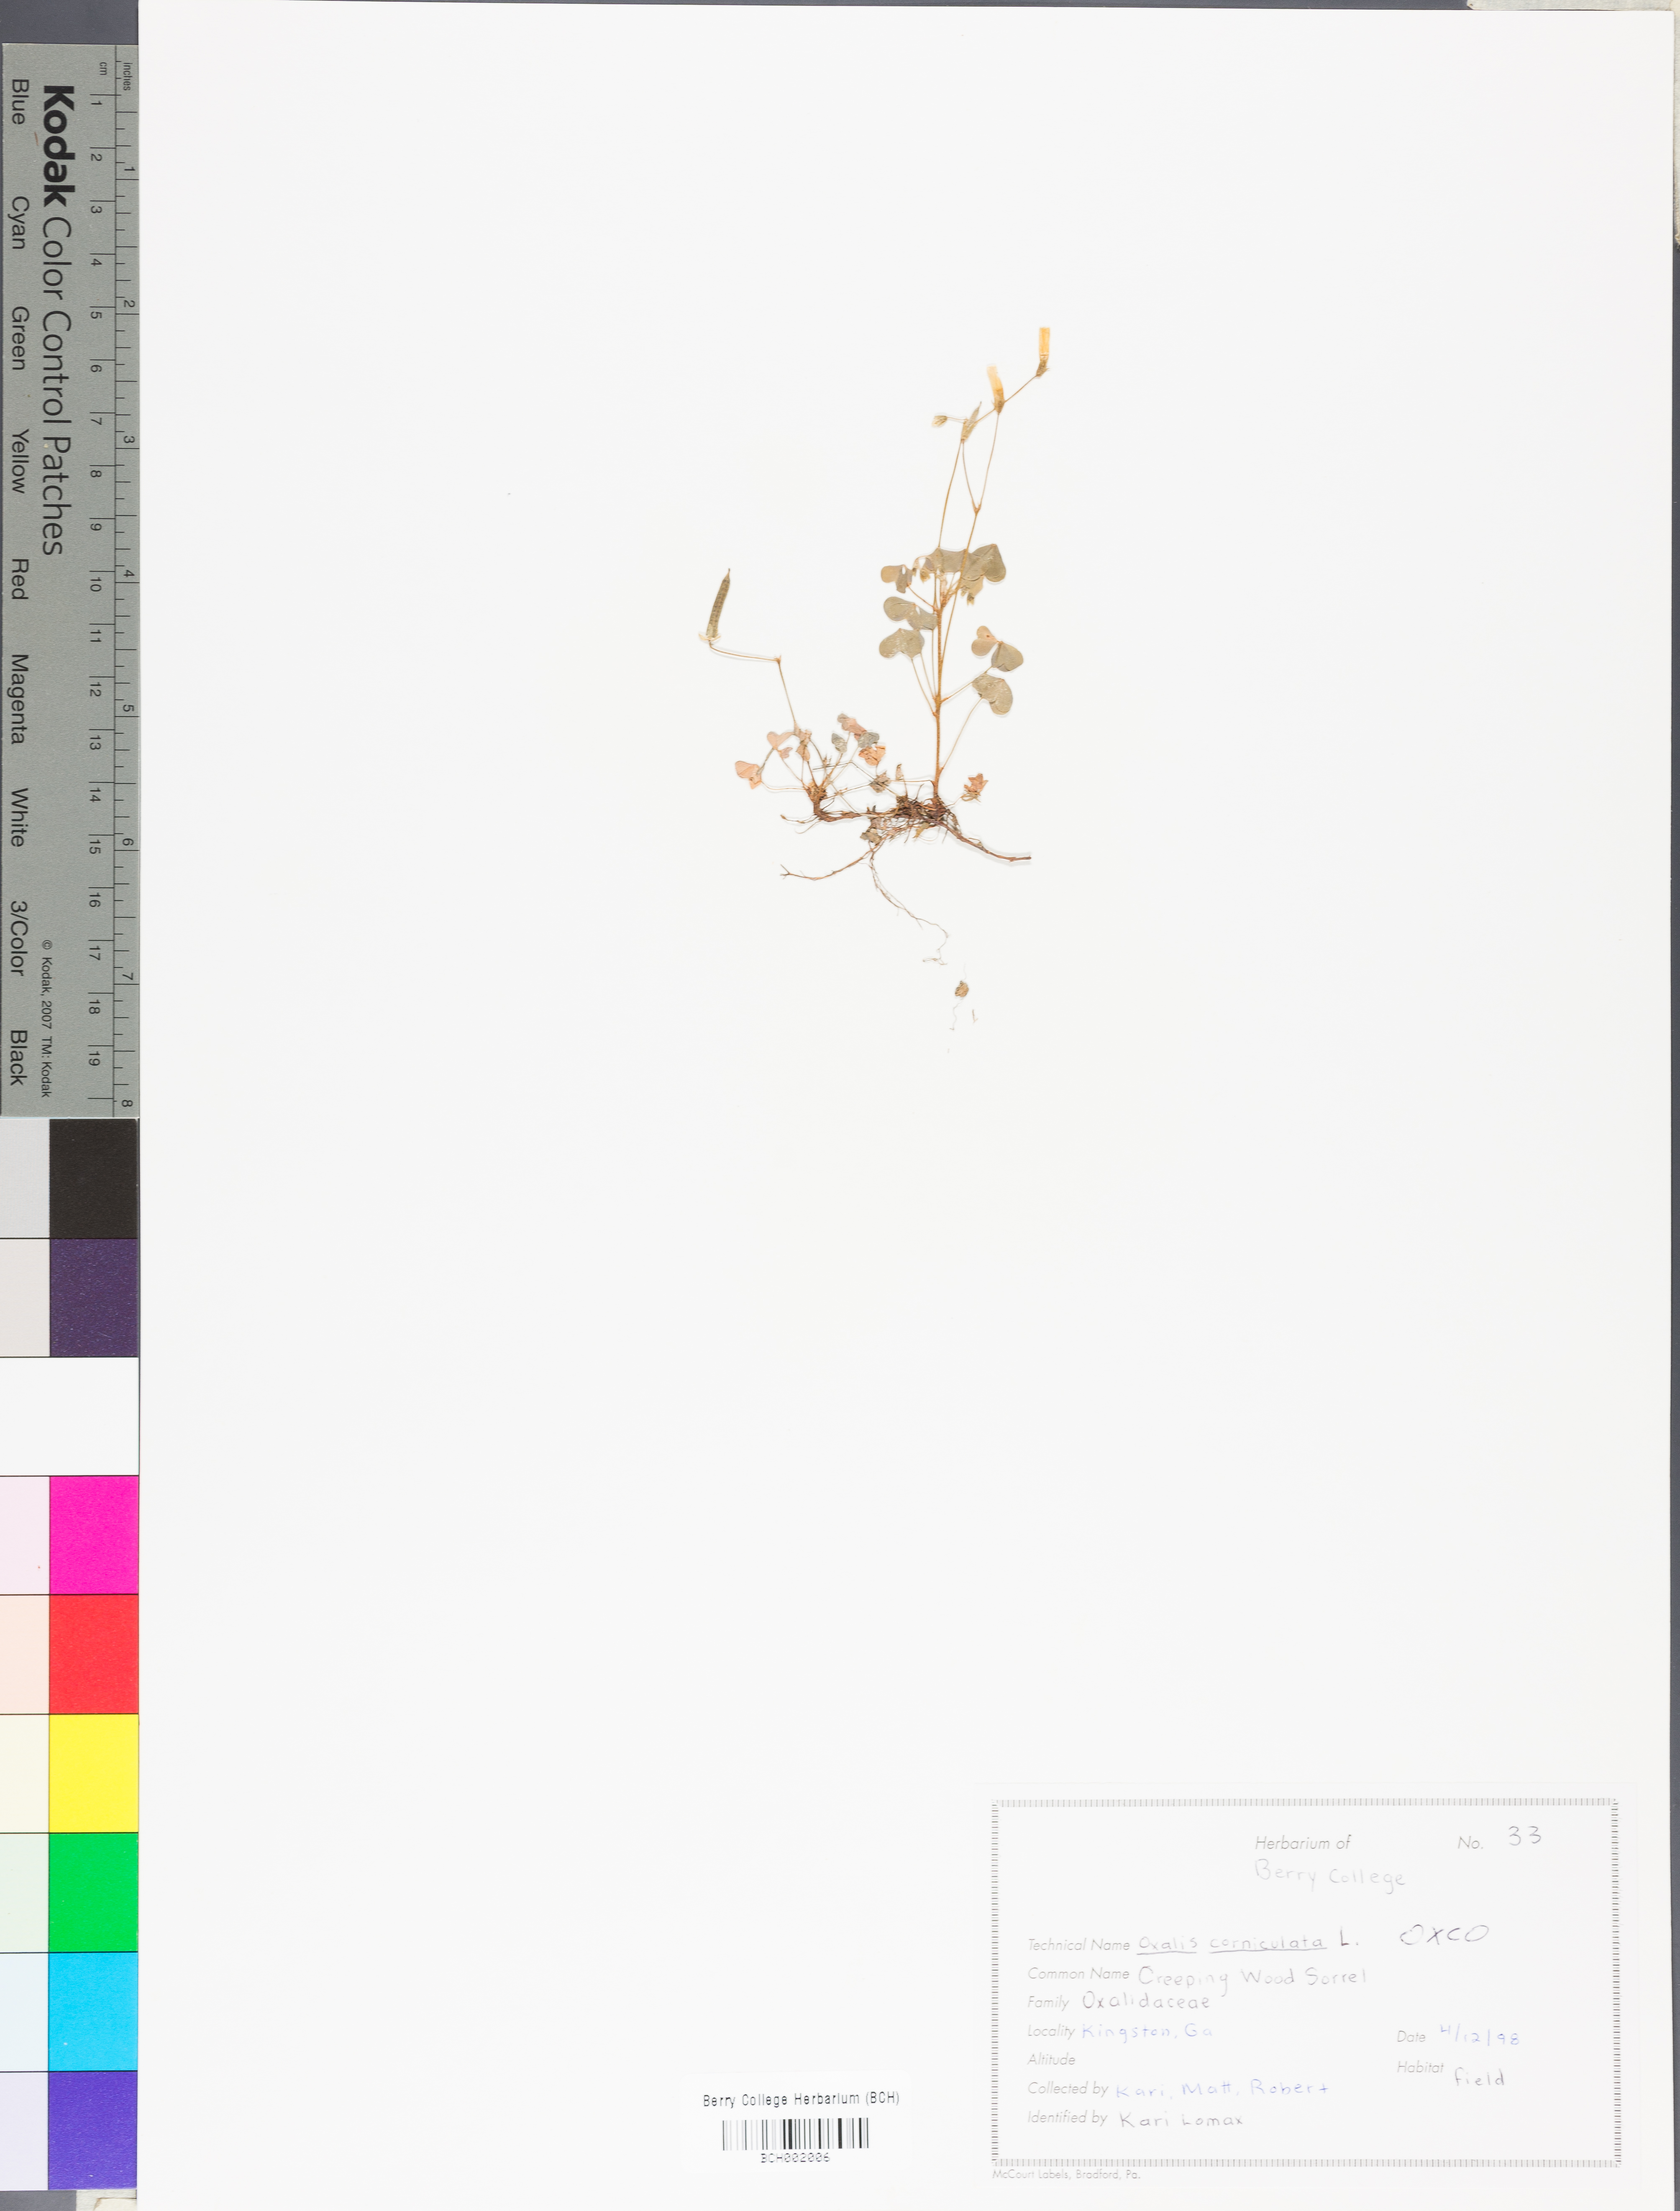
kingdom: Plantae
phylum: Tracheophyta
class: Magnoliopsida
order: Oxalidales
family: Oxalidaceae
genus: Oxalis
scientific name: Oxalis corniculata
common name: Procumbent yellow-sorrel
